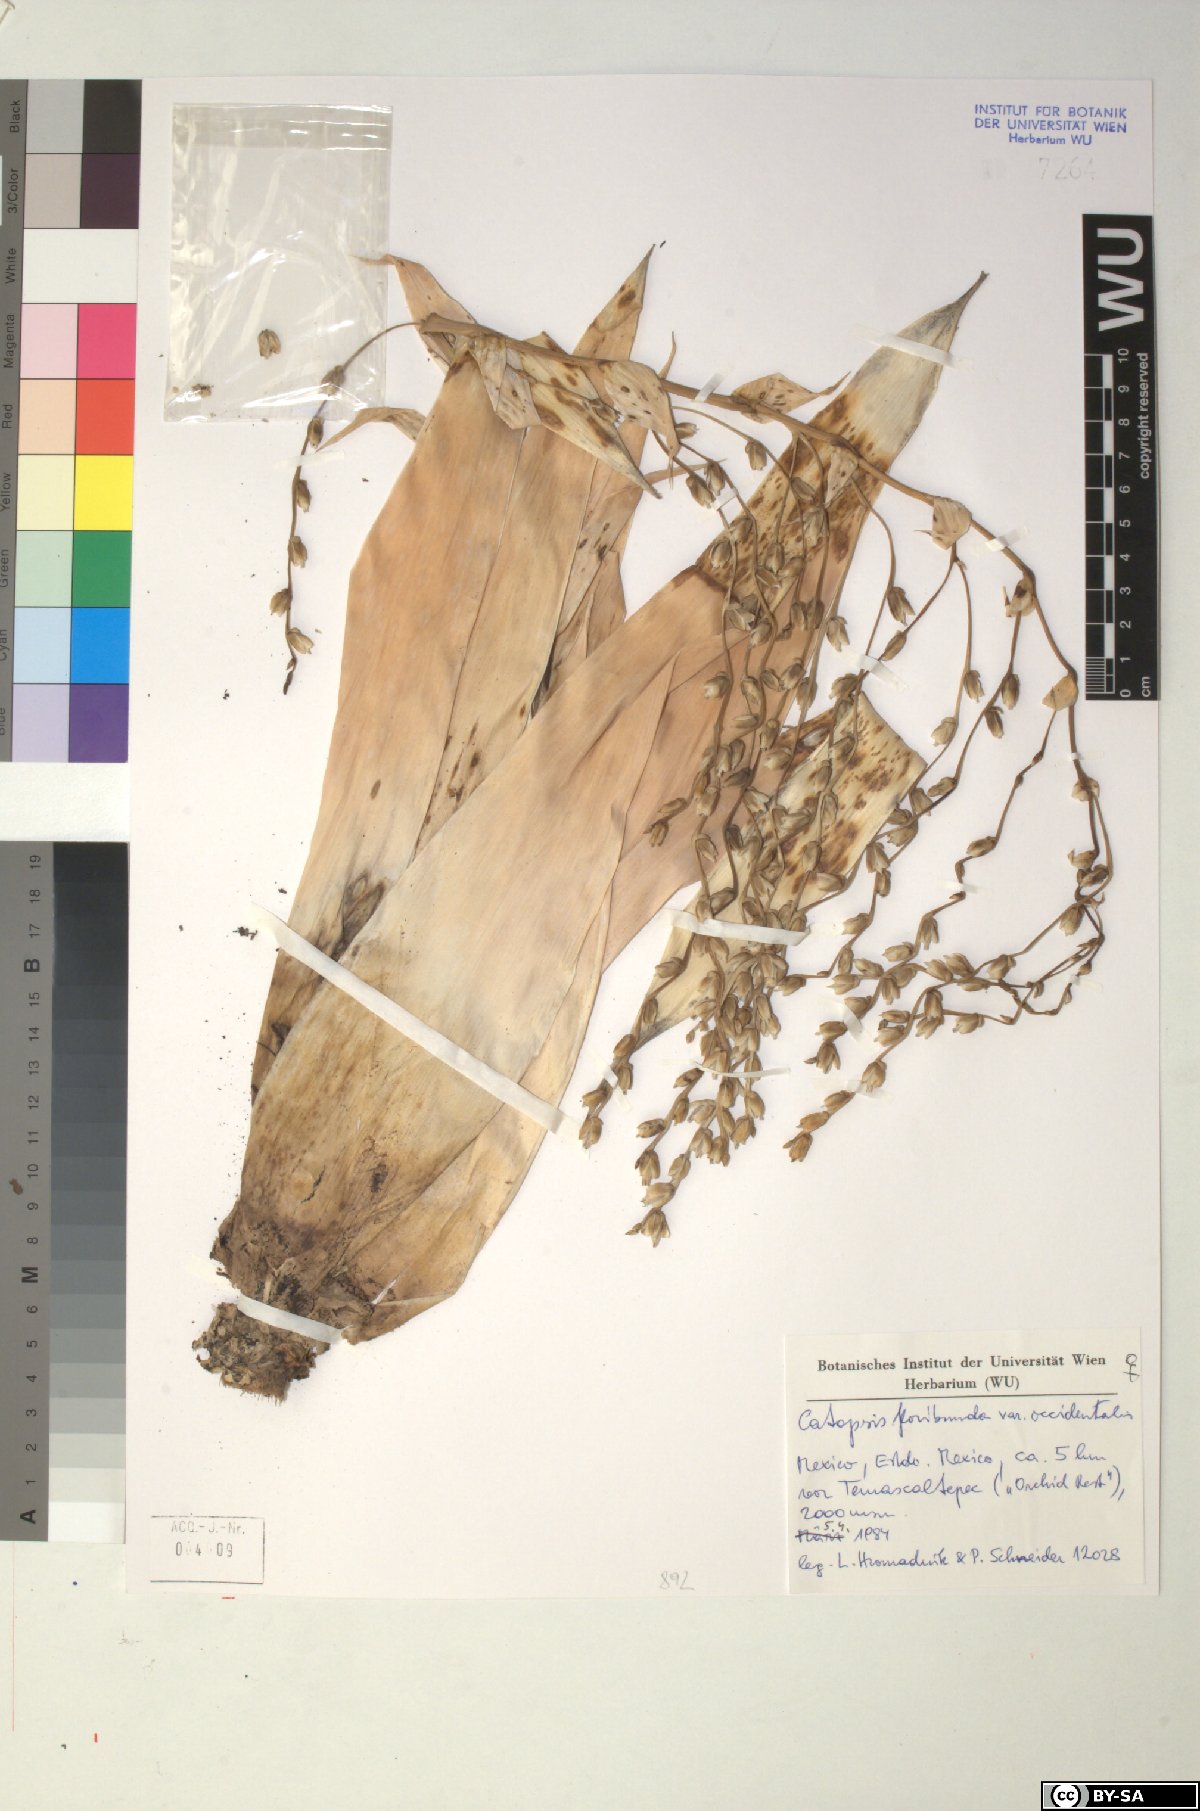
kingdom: Plantae
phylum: Tracheophyta
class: Liliopsida
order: Poales
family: Bromeliaceae
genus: Catopsis
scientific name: Catopsis floribunda
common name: Florida strap airplant
